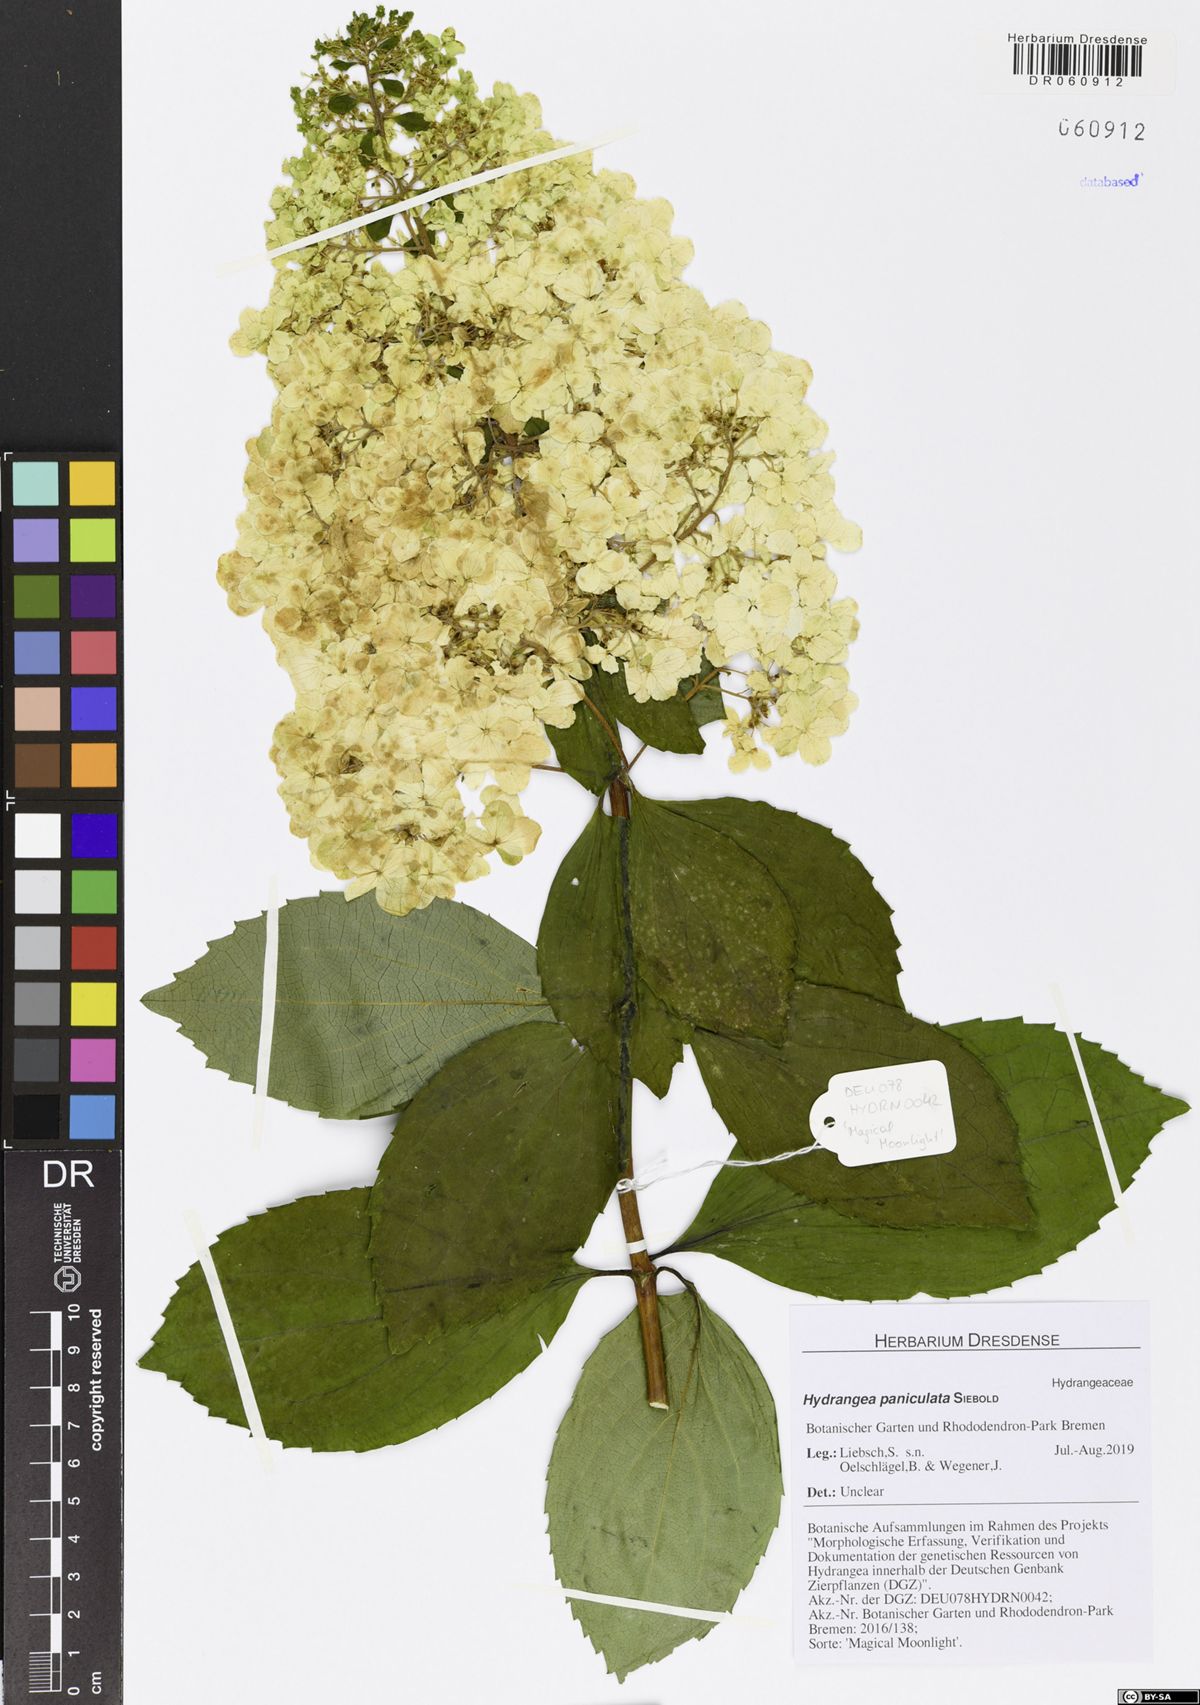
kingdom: Plantae
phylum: Tracheophyta
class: Magnoliopsida
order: Cornales
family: Hydrangeaceae
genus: Hydrangea
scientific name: Hydrangea paniculata
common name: Panicled hydrangea
